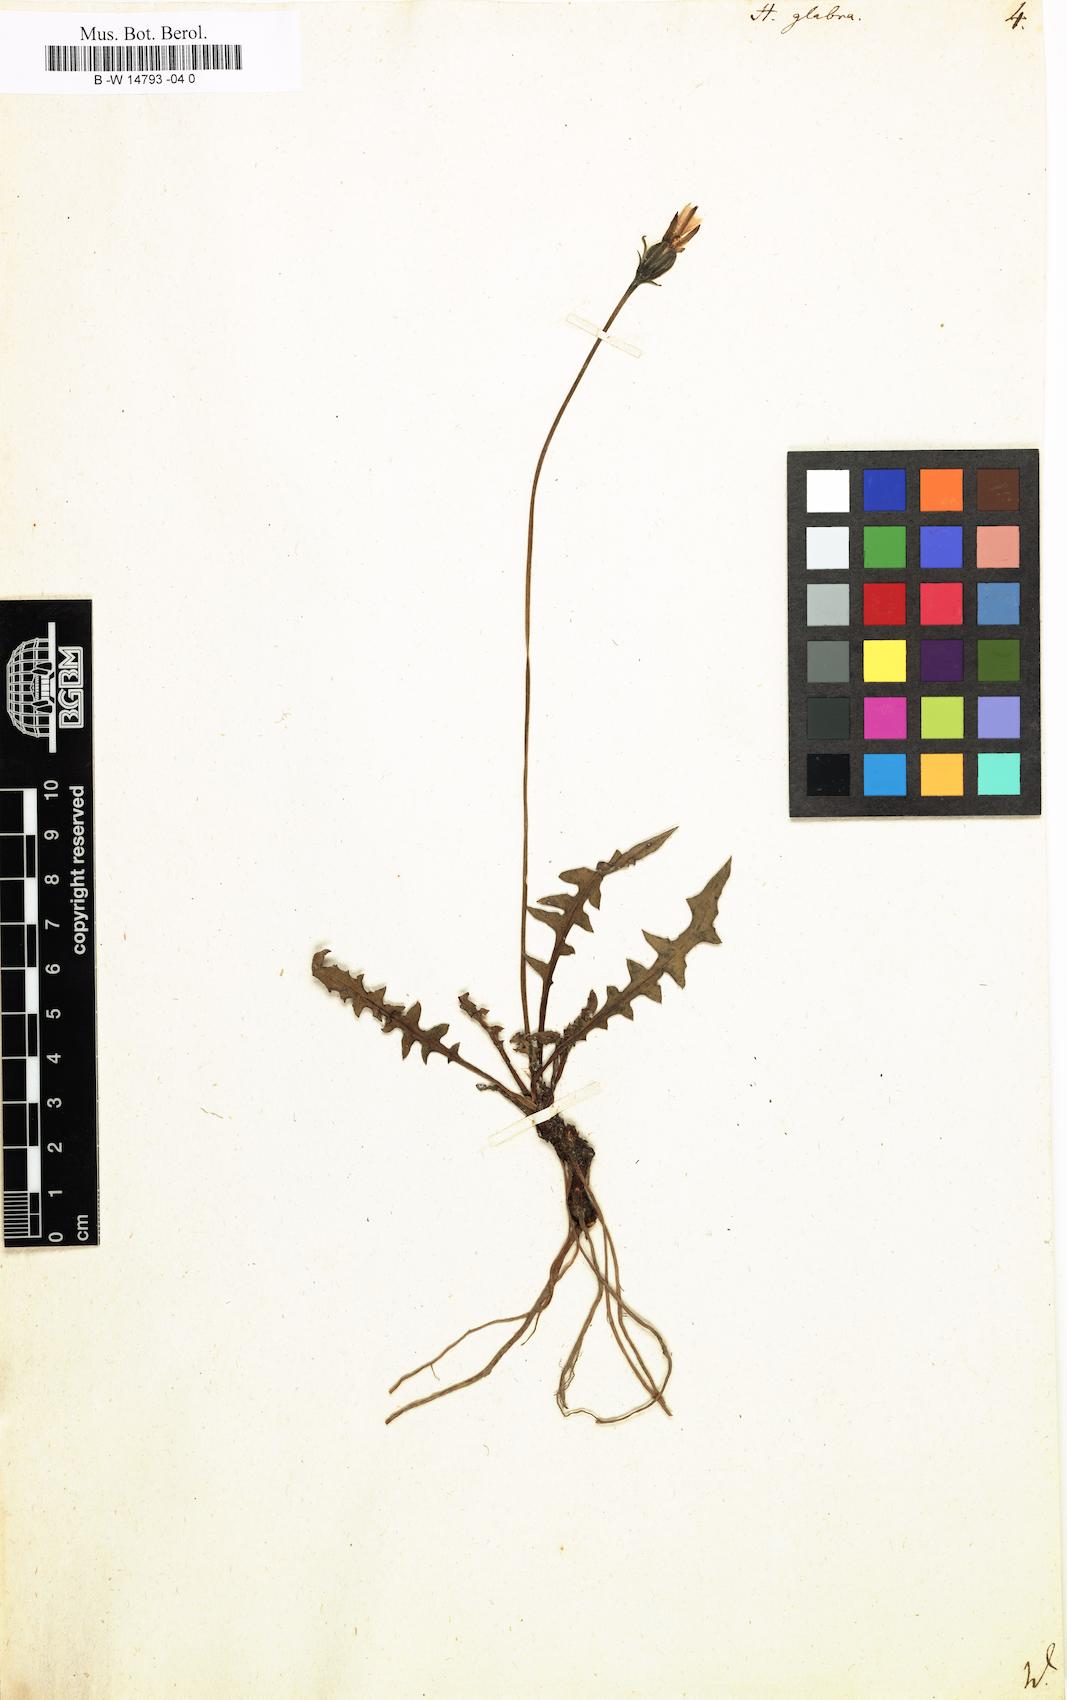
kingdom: Plantae
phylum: Tracheophyta
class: Magnoliopsida
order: Asterales
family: Asteraceae
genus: Hypochaeris
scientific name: Hypochaeris glabra
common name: Smooth catsear
